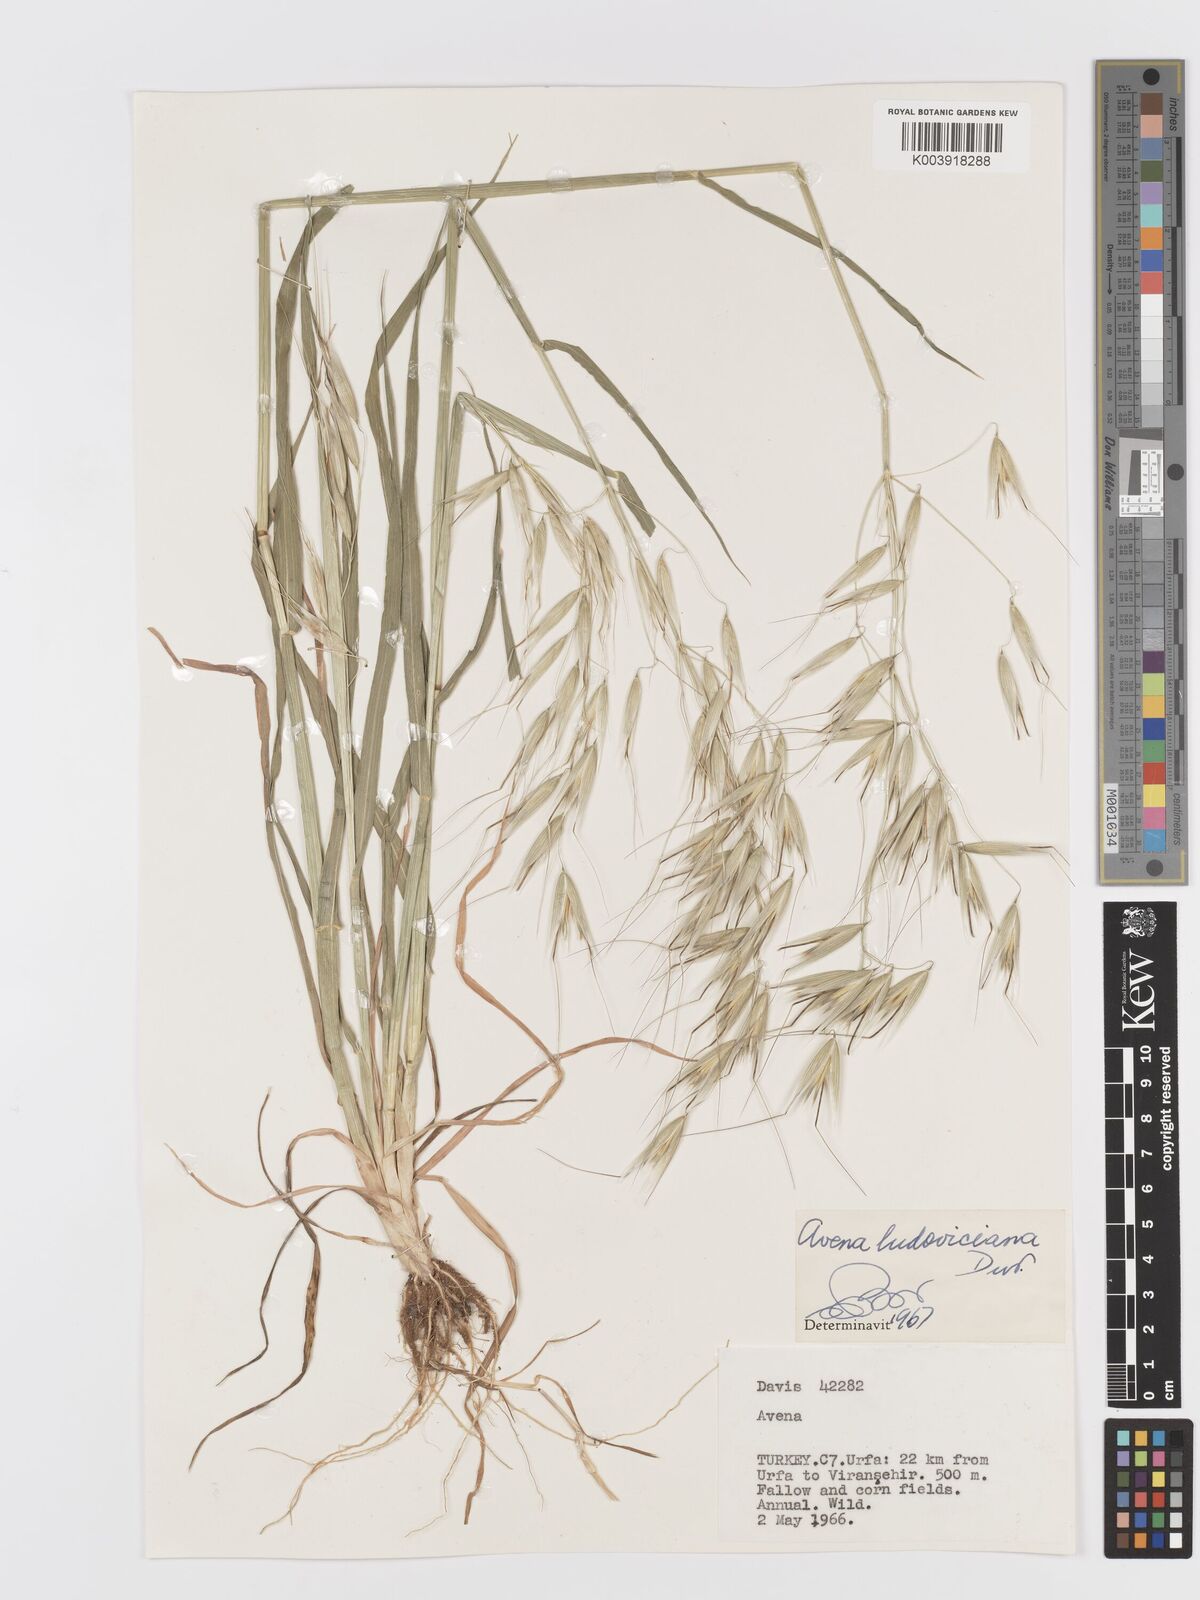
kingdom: Plantae
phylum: Tracheophyta
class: Liliopsida
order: Poales
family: Poaceae
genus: Avena
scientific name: Avena sterilis
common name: Animated oat
